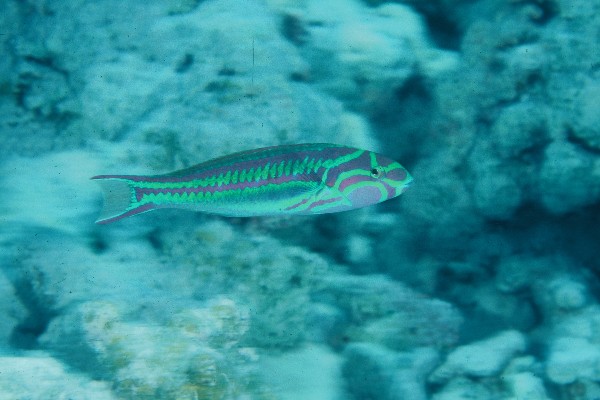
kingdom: Animalia
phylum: Chordata
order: Perciformes
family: Labridae
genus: Thalassoma
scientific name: Thalassoma quinquevittatum
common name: Five striped surge wrasse
